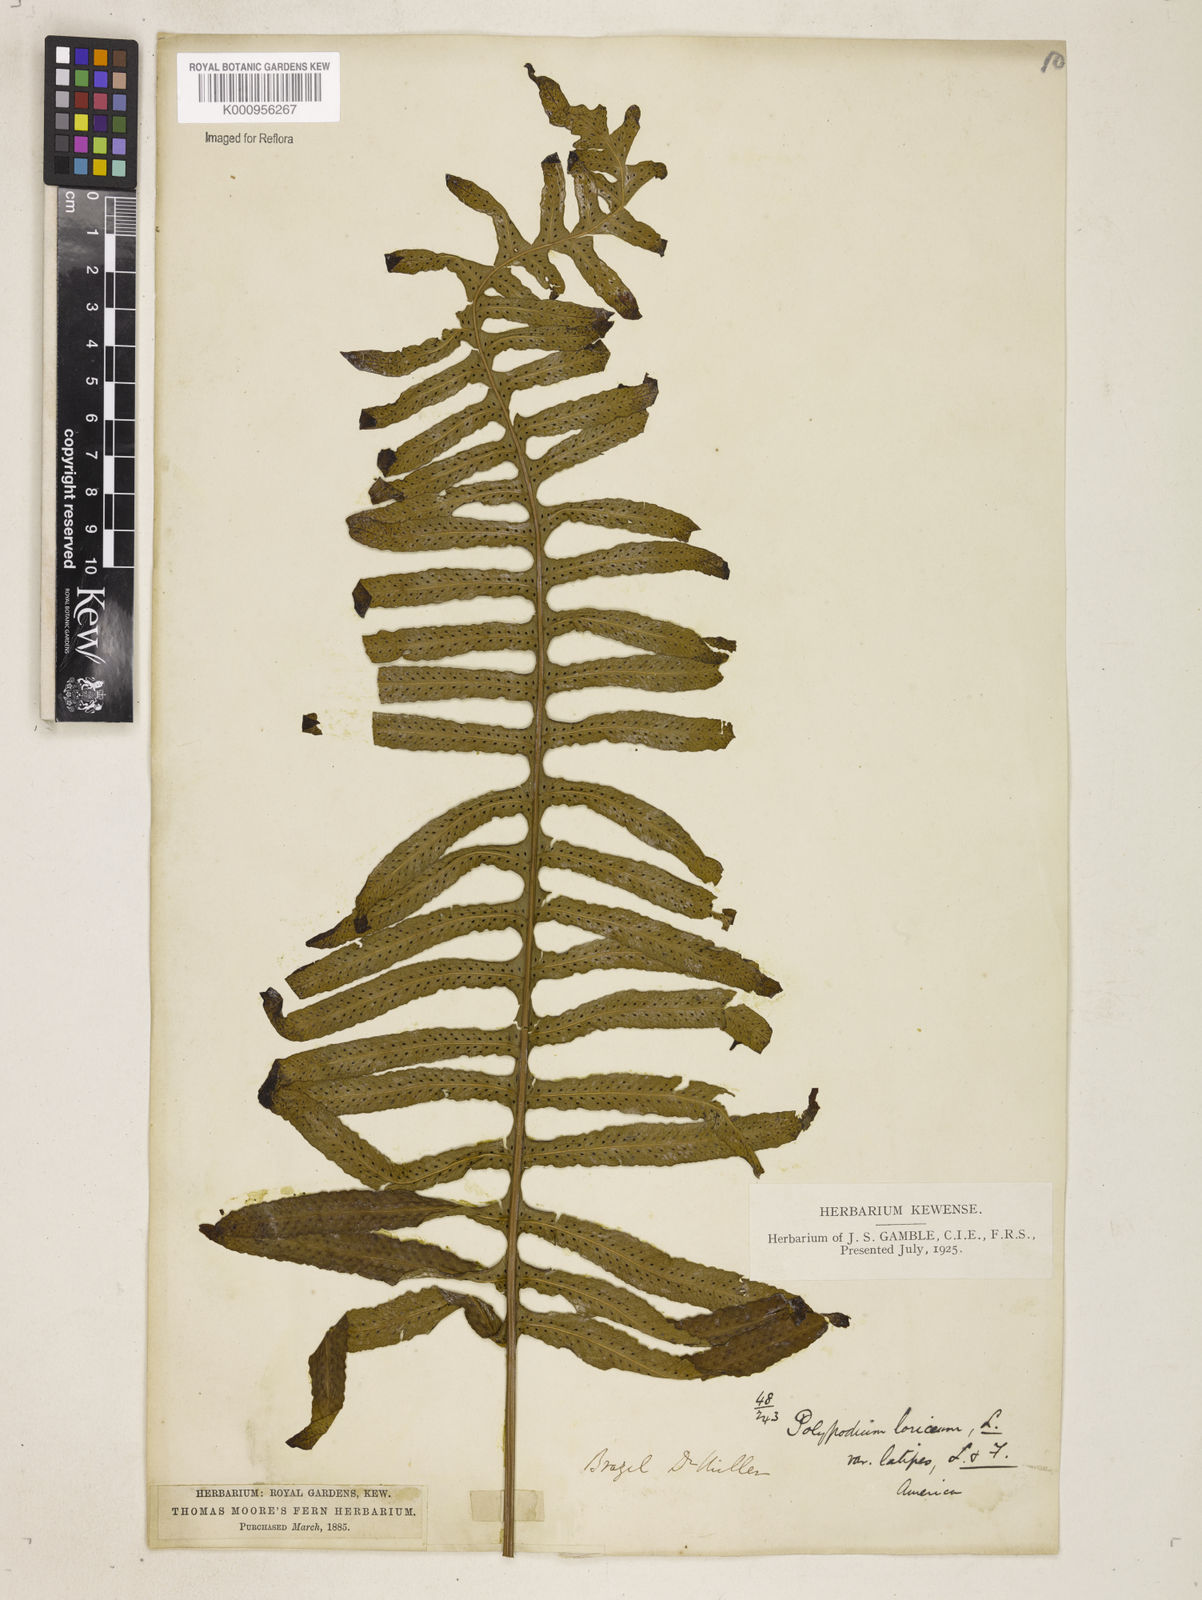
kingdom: Plantae
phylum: Tracheophyta
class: Polypodiopsida
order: Polypodiales
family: Polypodiaceae
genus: Serpocaulon
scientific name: Serpocaulon loriceum
